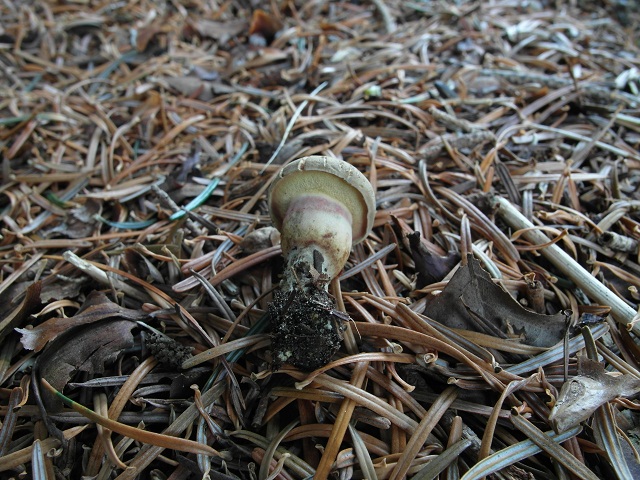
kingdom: Fungi
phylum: Basidiomycota
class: Agaricomycetes
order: Boletales
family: Boletaceae
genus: Xerocomellus
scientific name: Xerocomellus porosporus
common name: hvidsprukken rørhat
